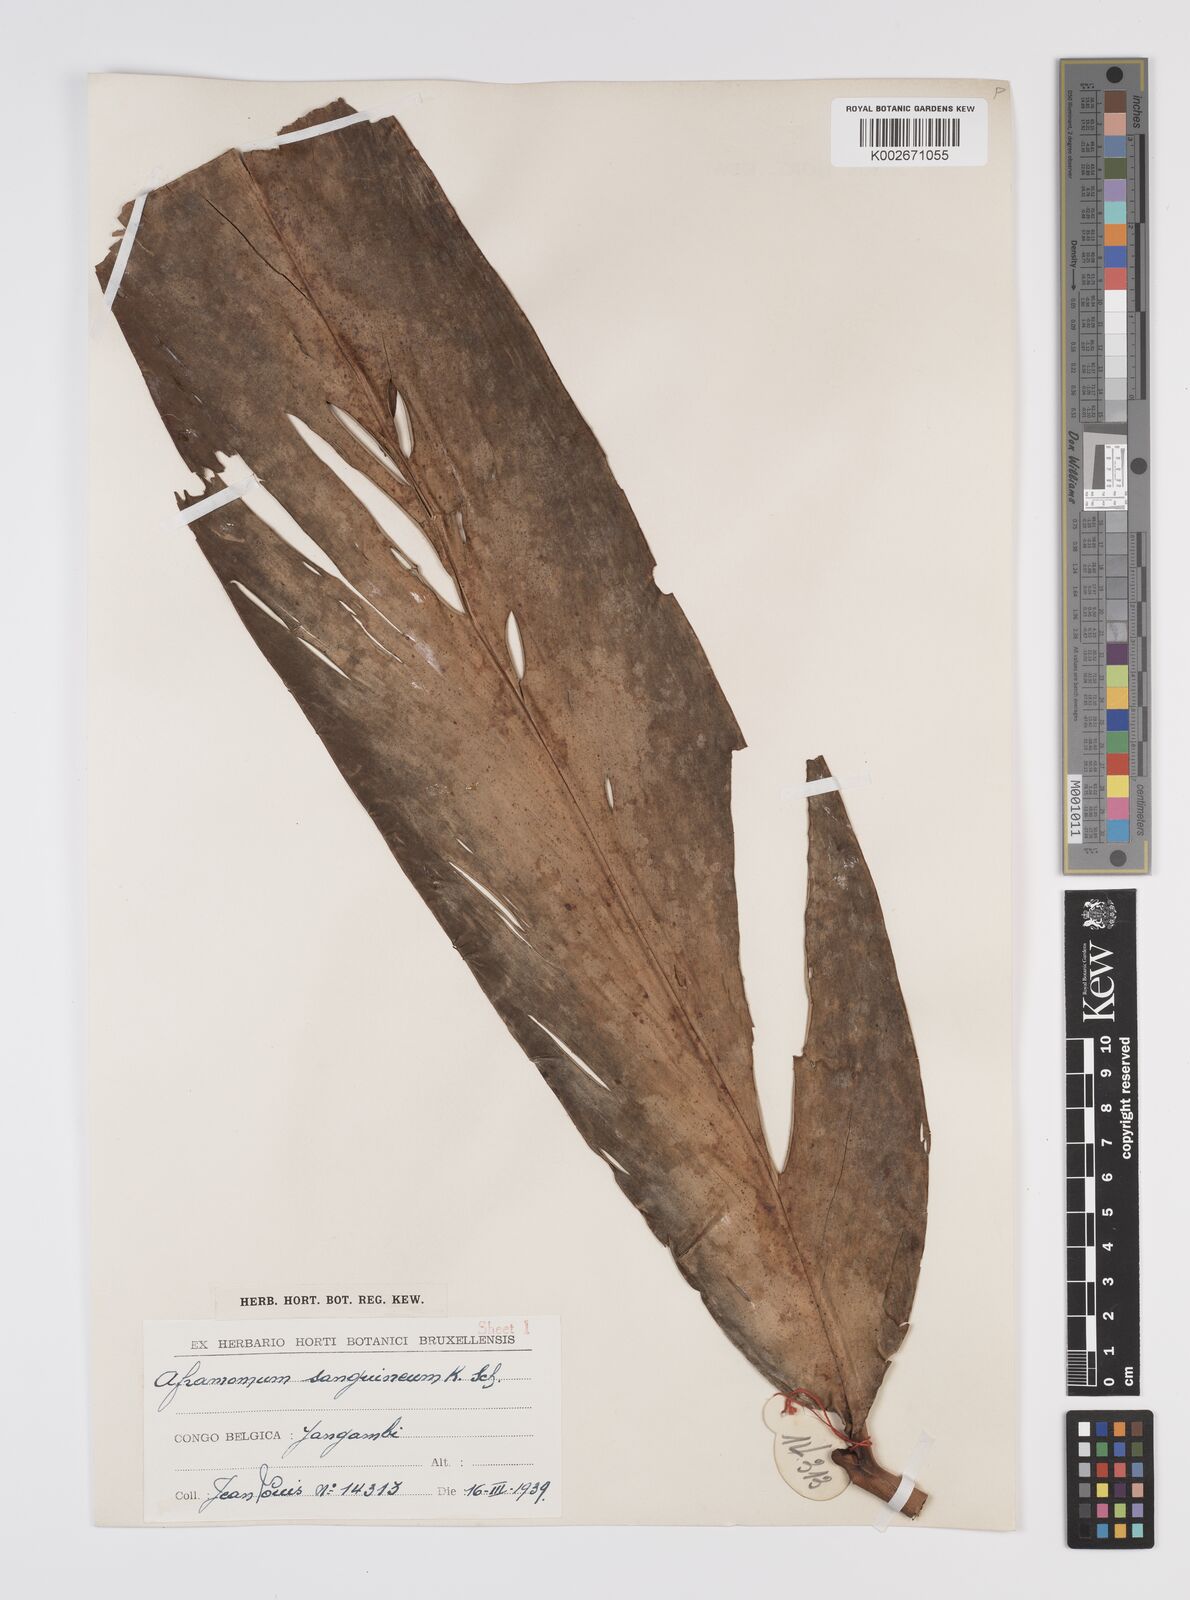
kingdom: Plantae
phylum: Tracheophyta
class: Liliopsida
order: Zingiberales
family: Zingiberaceae
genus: Aframomum
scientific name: Aframomum angustifolium
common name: Guinea grains
